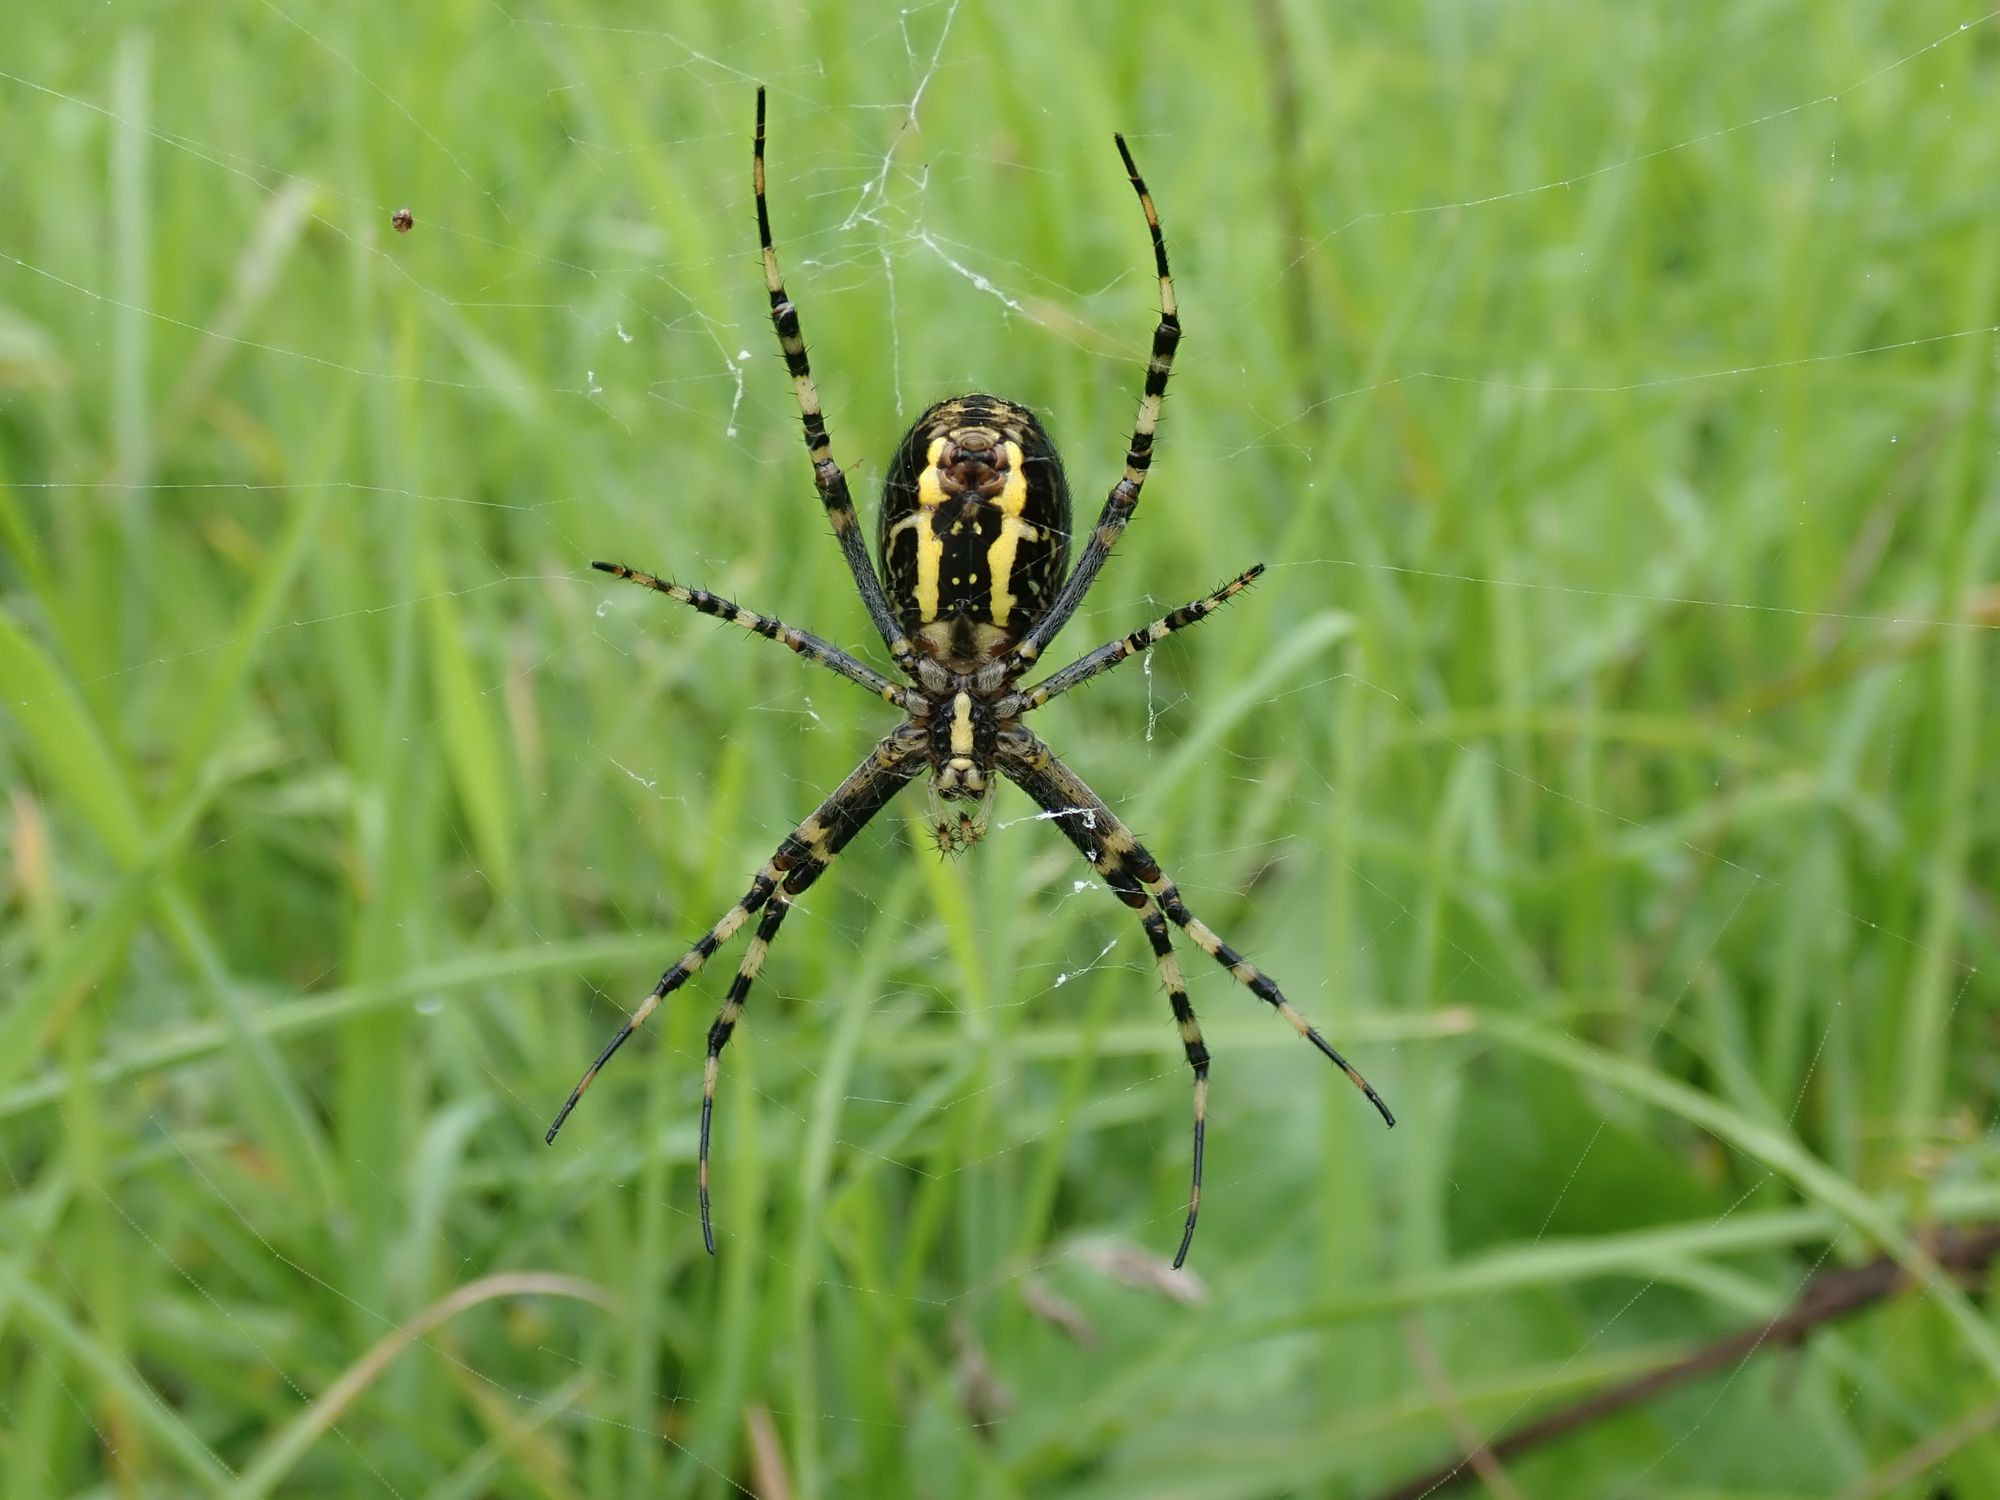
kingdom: Animalia
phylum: Arthropoda
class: Arachnida
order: Araneae
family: Araneidae
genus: Argiope
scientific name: Argiope bruennichi
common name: Hvepseedderkop
